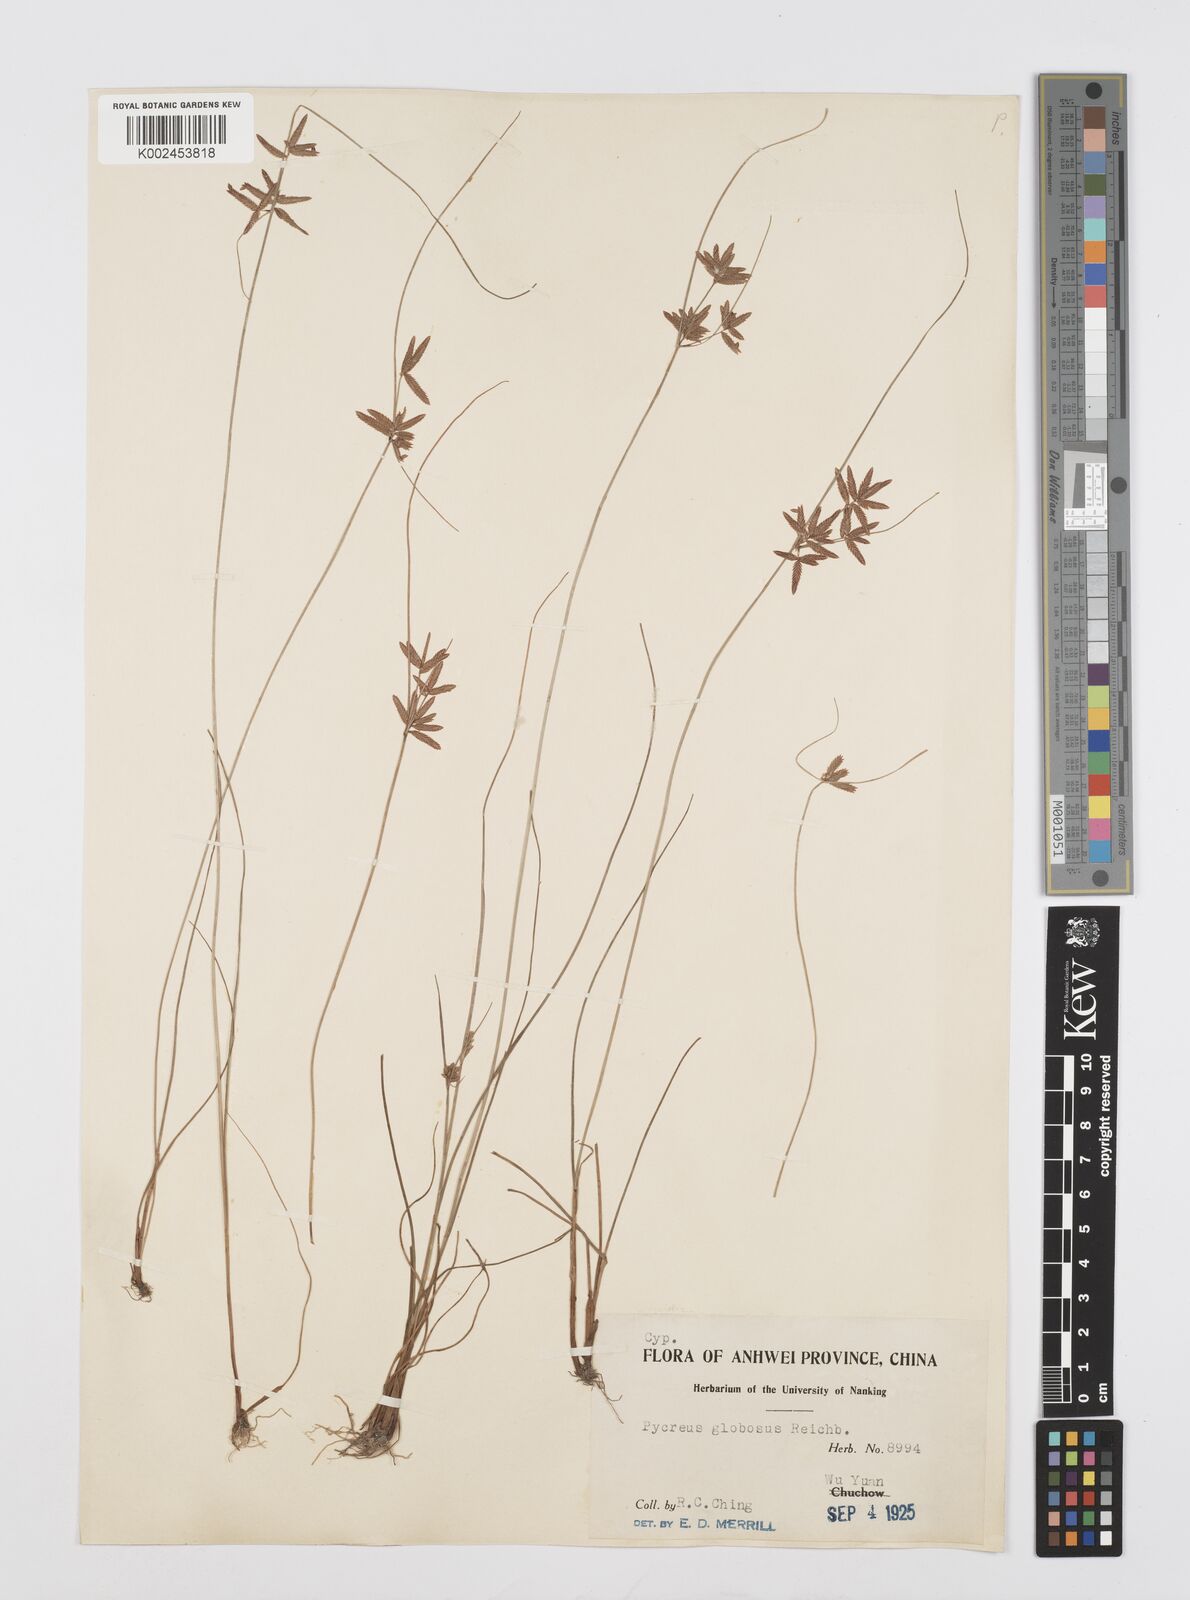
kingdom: Plantae
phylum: Tracheophyta
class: Liliopsida
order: Poales
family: Cyperaceae
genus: Cyperus
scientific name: Cyperus flavidus
